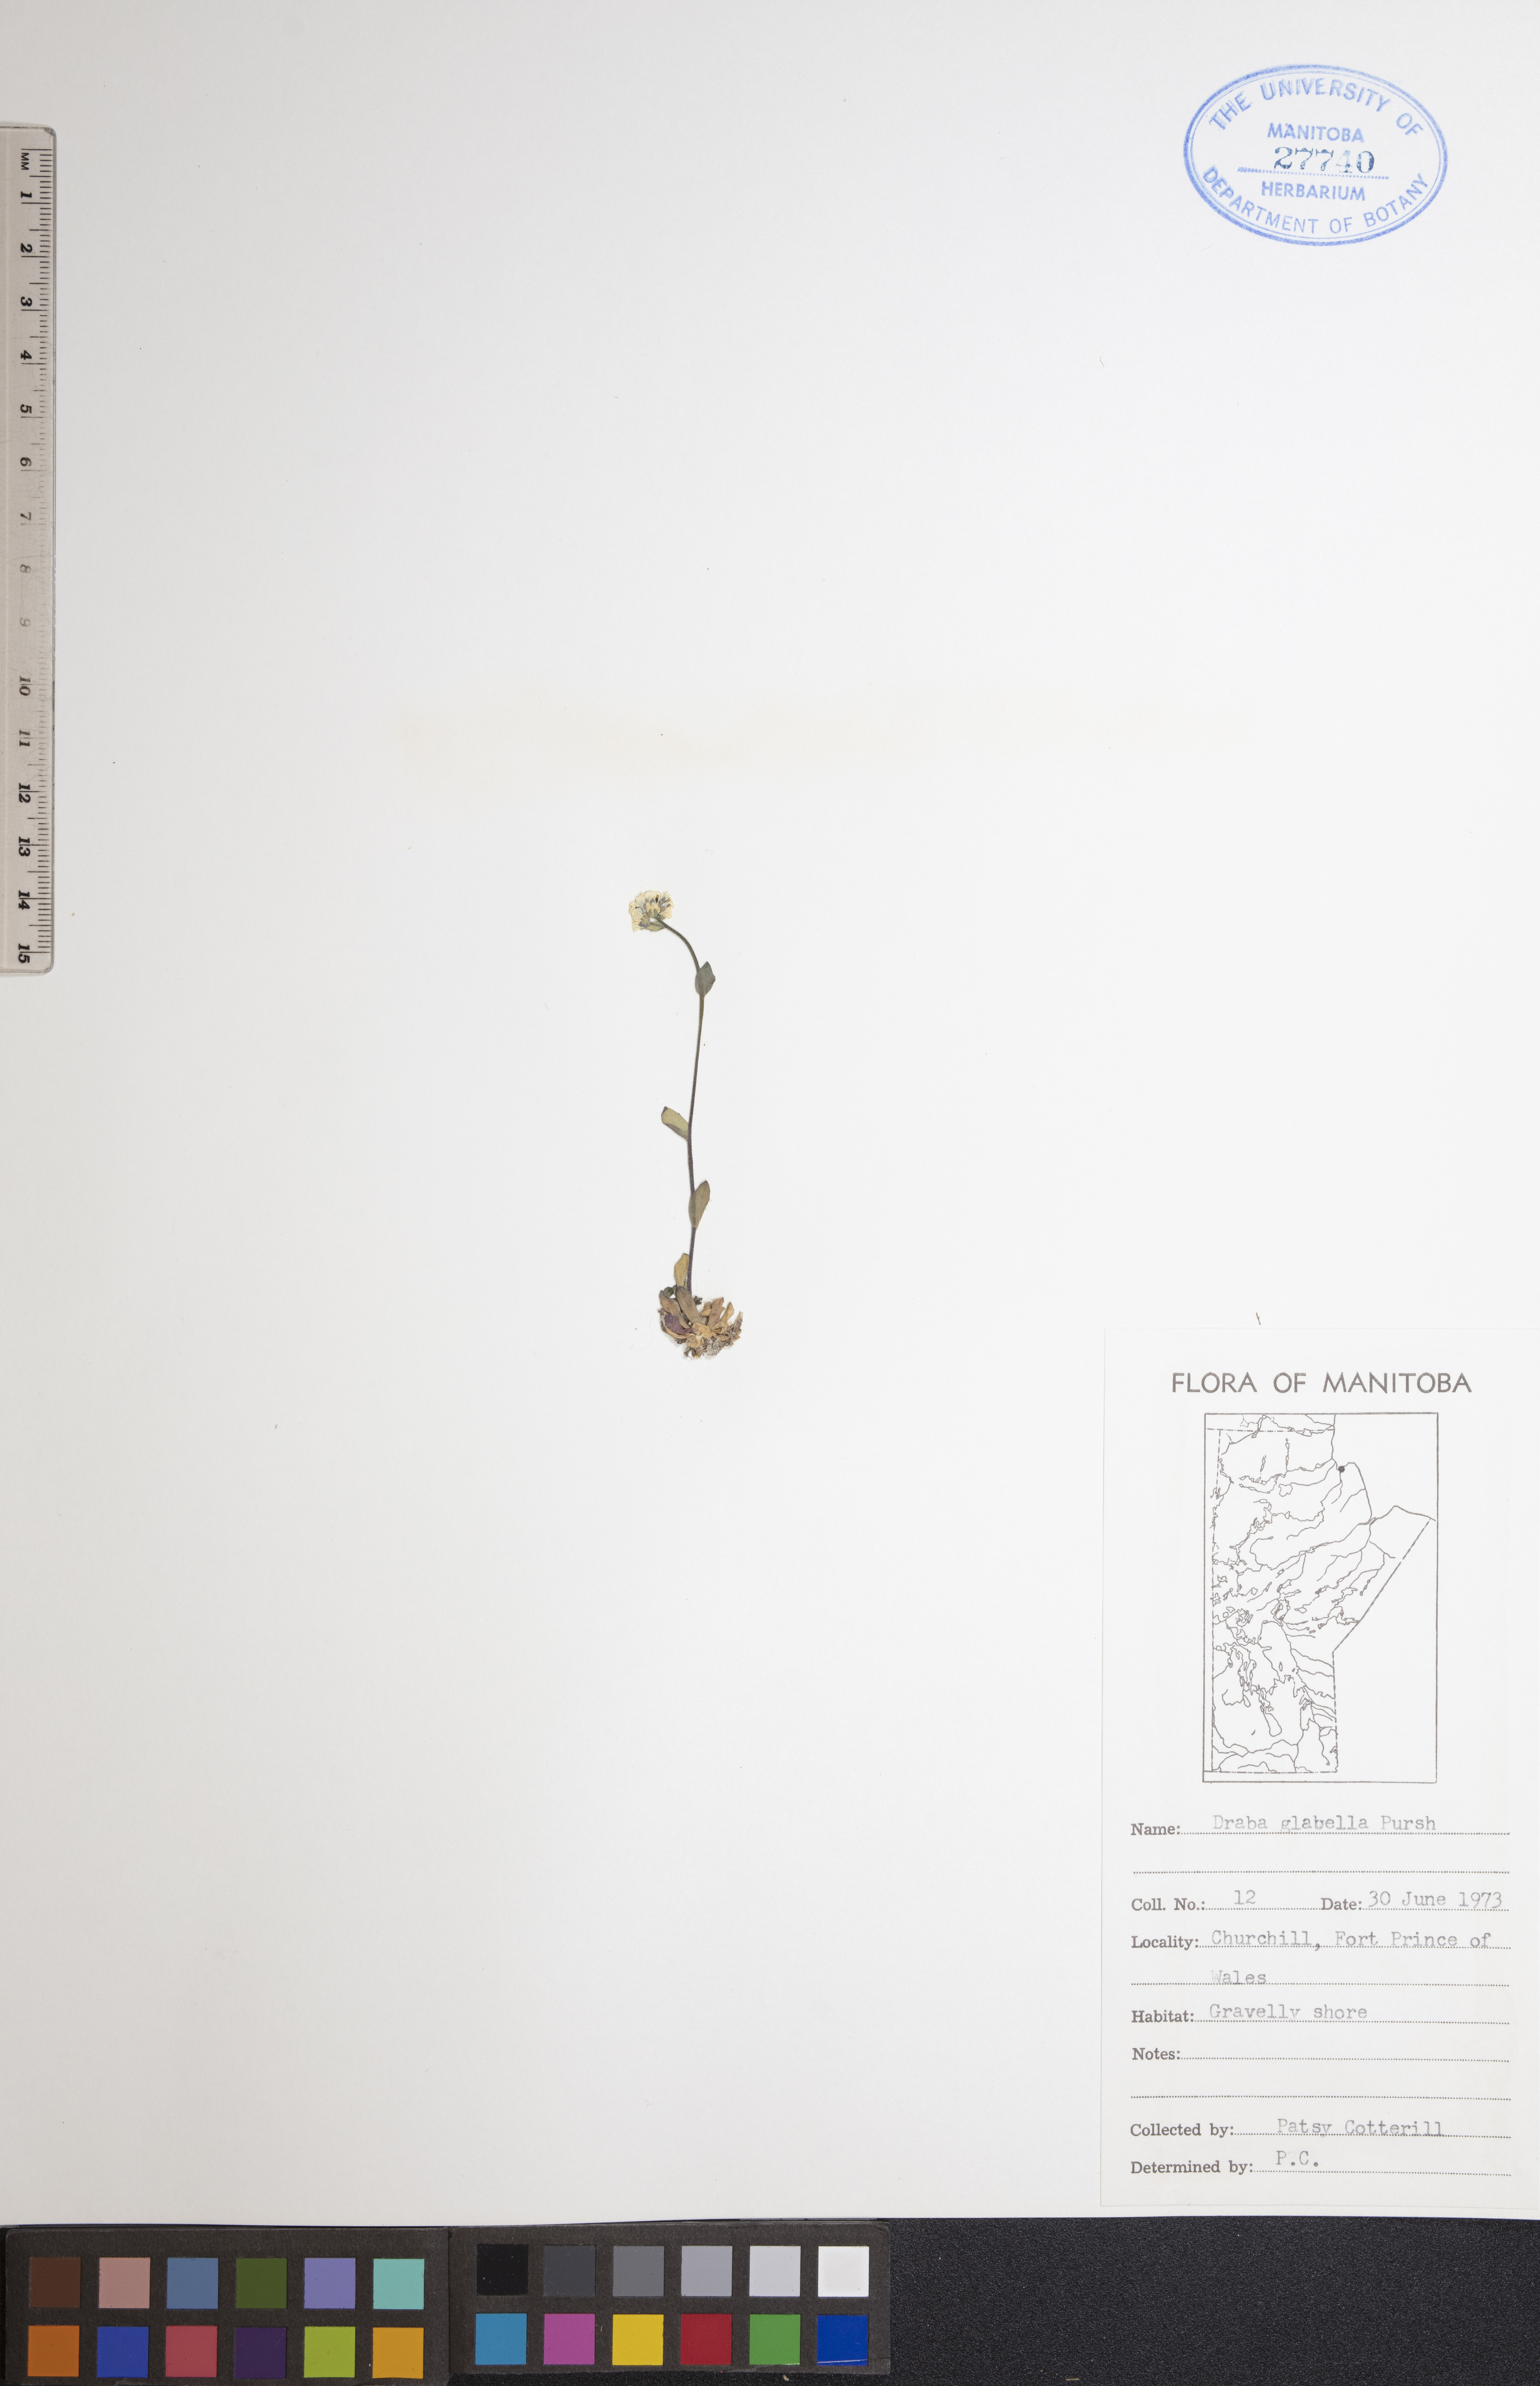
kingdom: Plantae
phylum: Tracheophyta
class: Magnoliopsida
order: Brassicales
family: Brassicaceae
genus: Draba
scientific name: Draba glabella
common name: Glaucous draba
